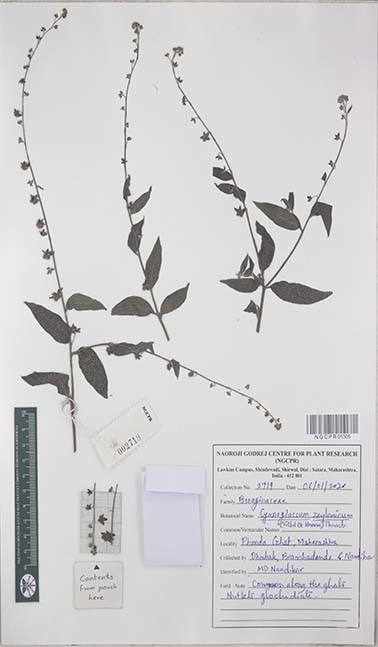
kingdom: Plantae
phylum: Tracheophyta
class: Magnoliopsida
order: Boraginales
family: Boraginaceae
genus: Rochelia
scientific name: Rochelia zeylanica
